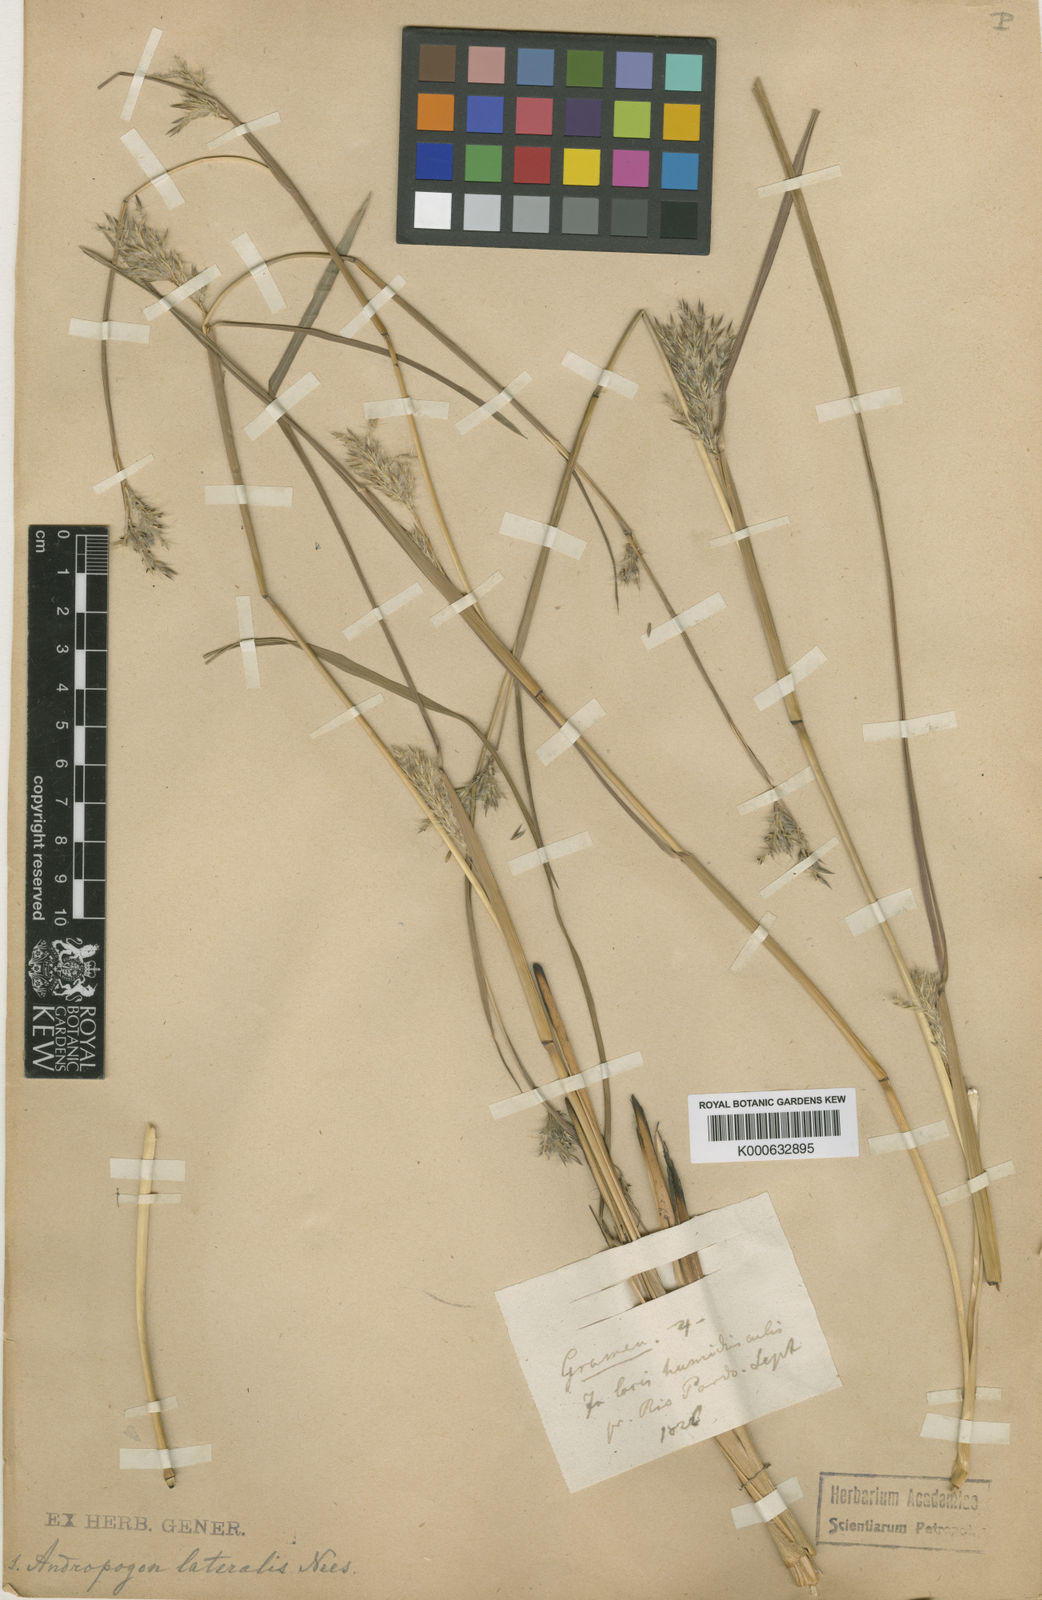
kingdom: Plantae
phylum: Tracheophyta
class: Liliopsida
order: Poales
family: Poaceae
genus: Andropogon
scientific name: Andropogon hypogynus
